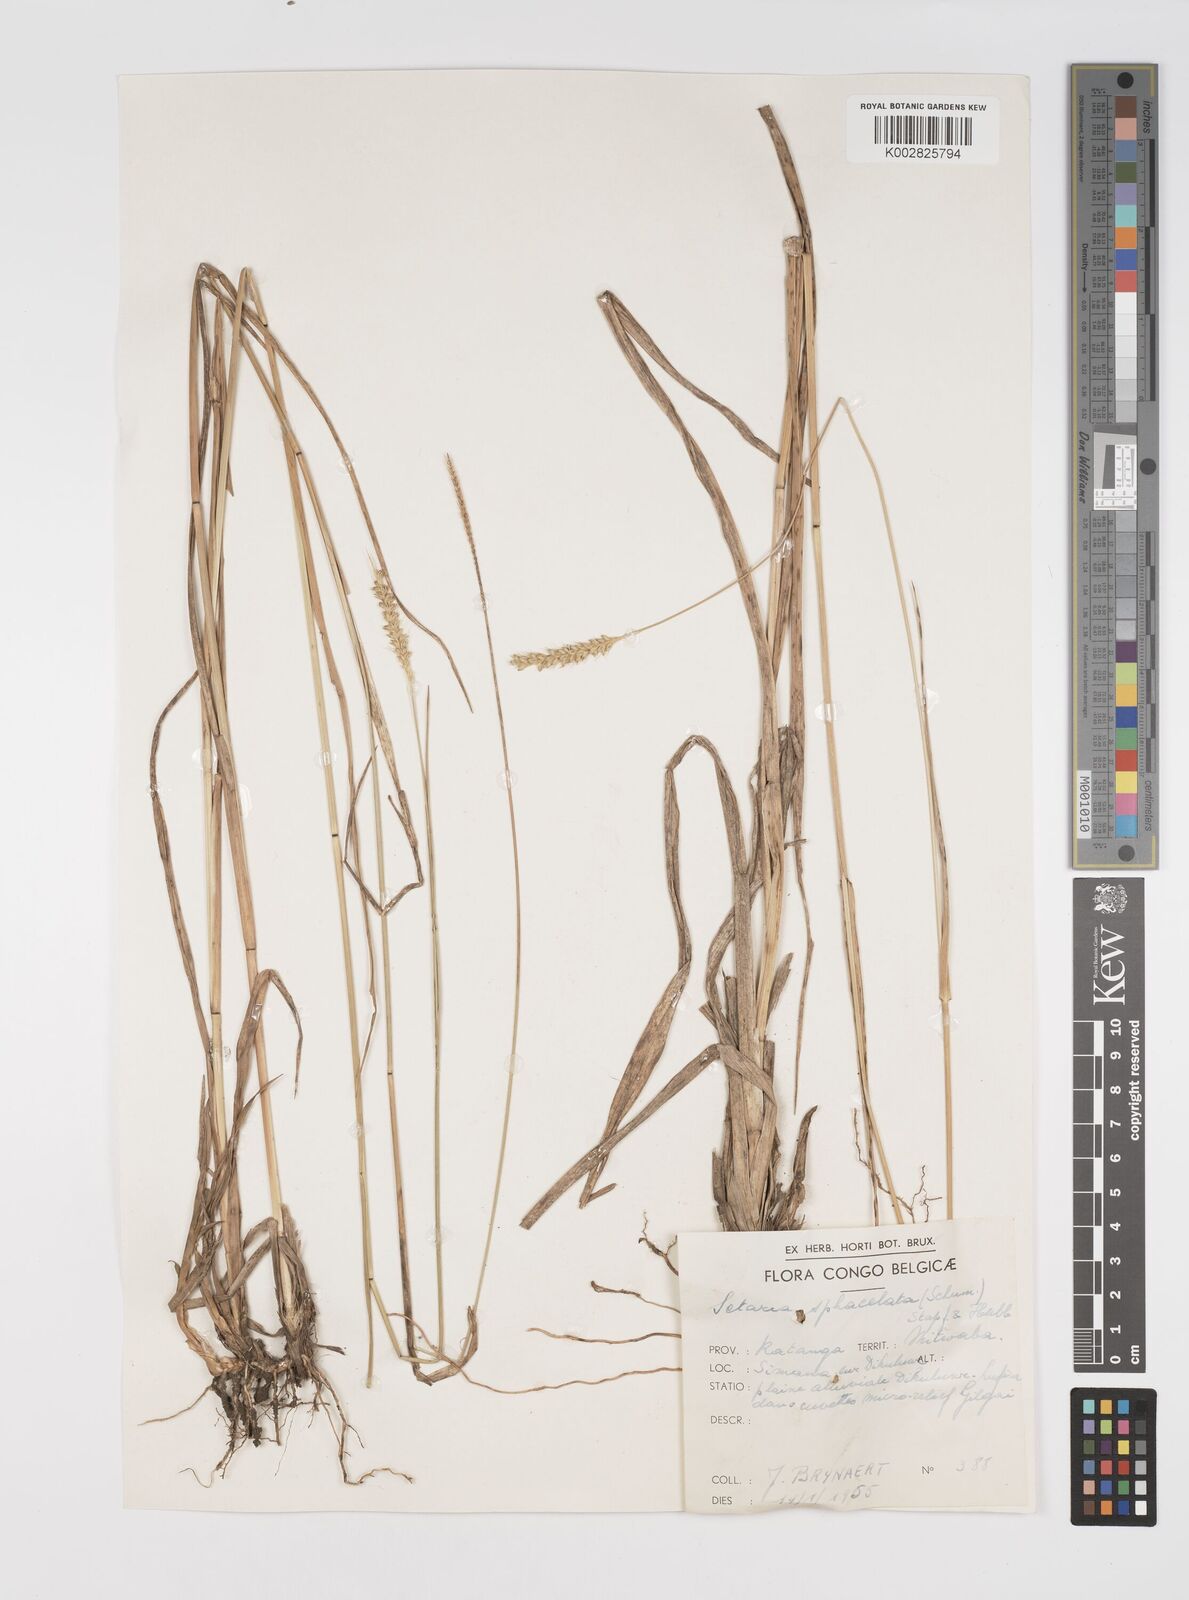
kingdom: Plantae
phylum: Tracheophyta
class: Liliopsida
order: Poales
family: Poaceae
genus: Setaria
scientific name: Setaria sphacelata
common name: African bristlegrass
